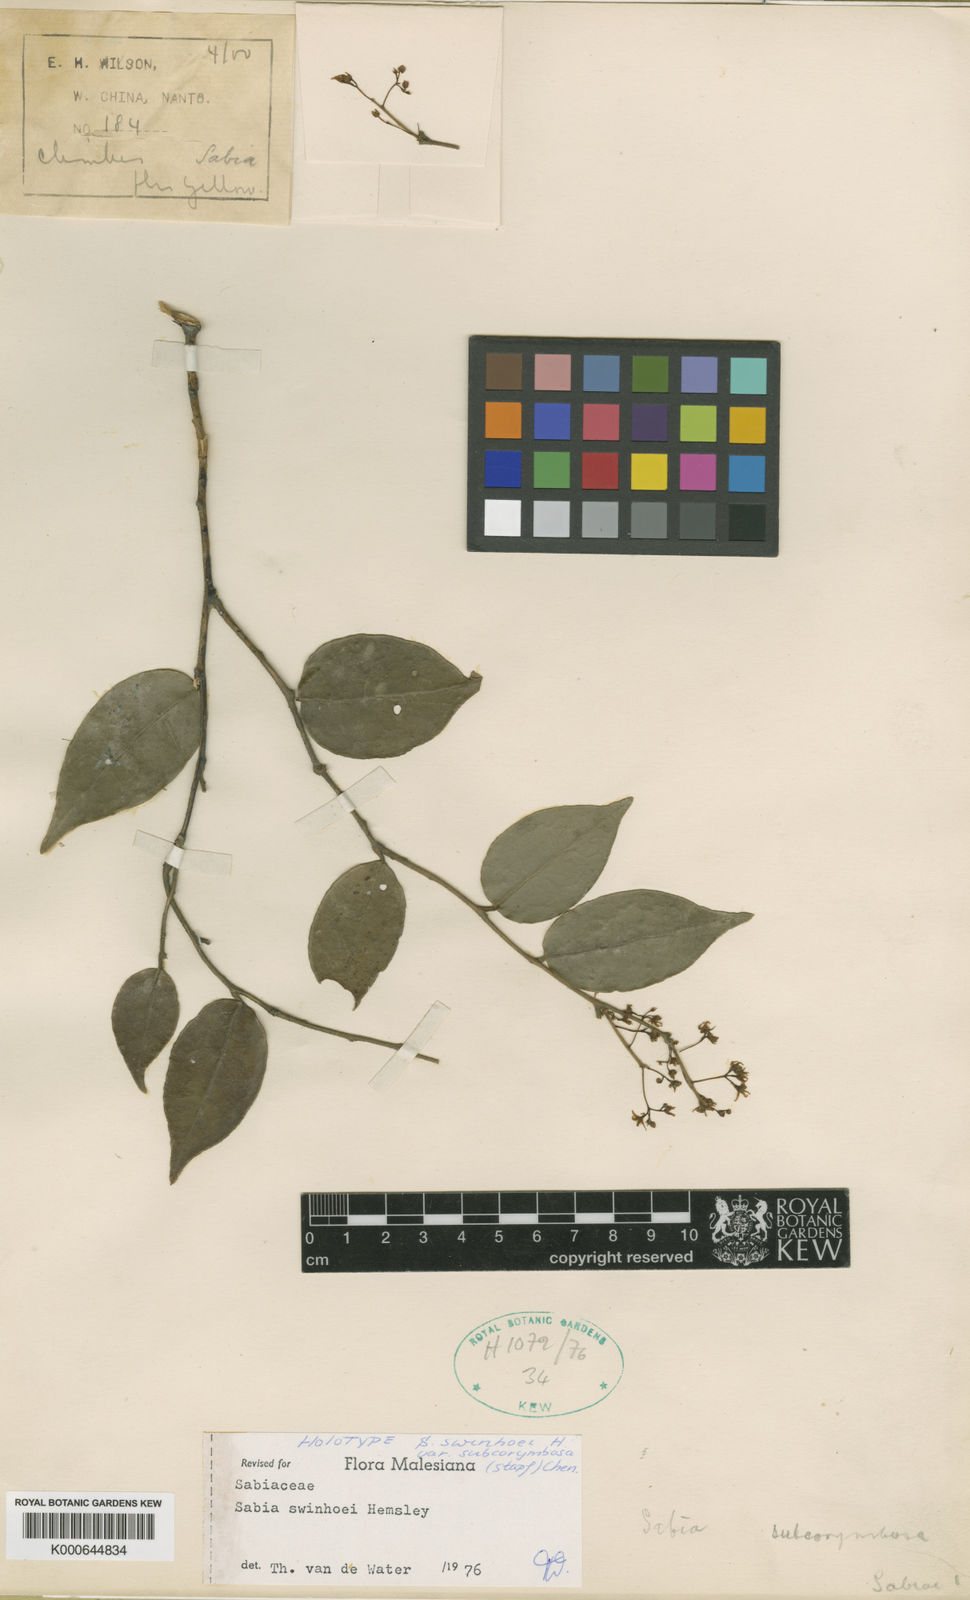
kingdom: Plantae
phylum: Tracheophyta
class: Magnoliopsida
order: Proteales
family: Sabiaceae
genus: Sabia
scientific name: Sabia swinhoei
